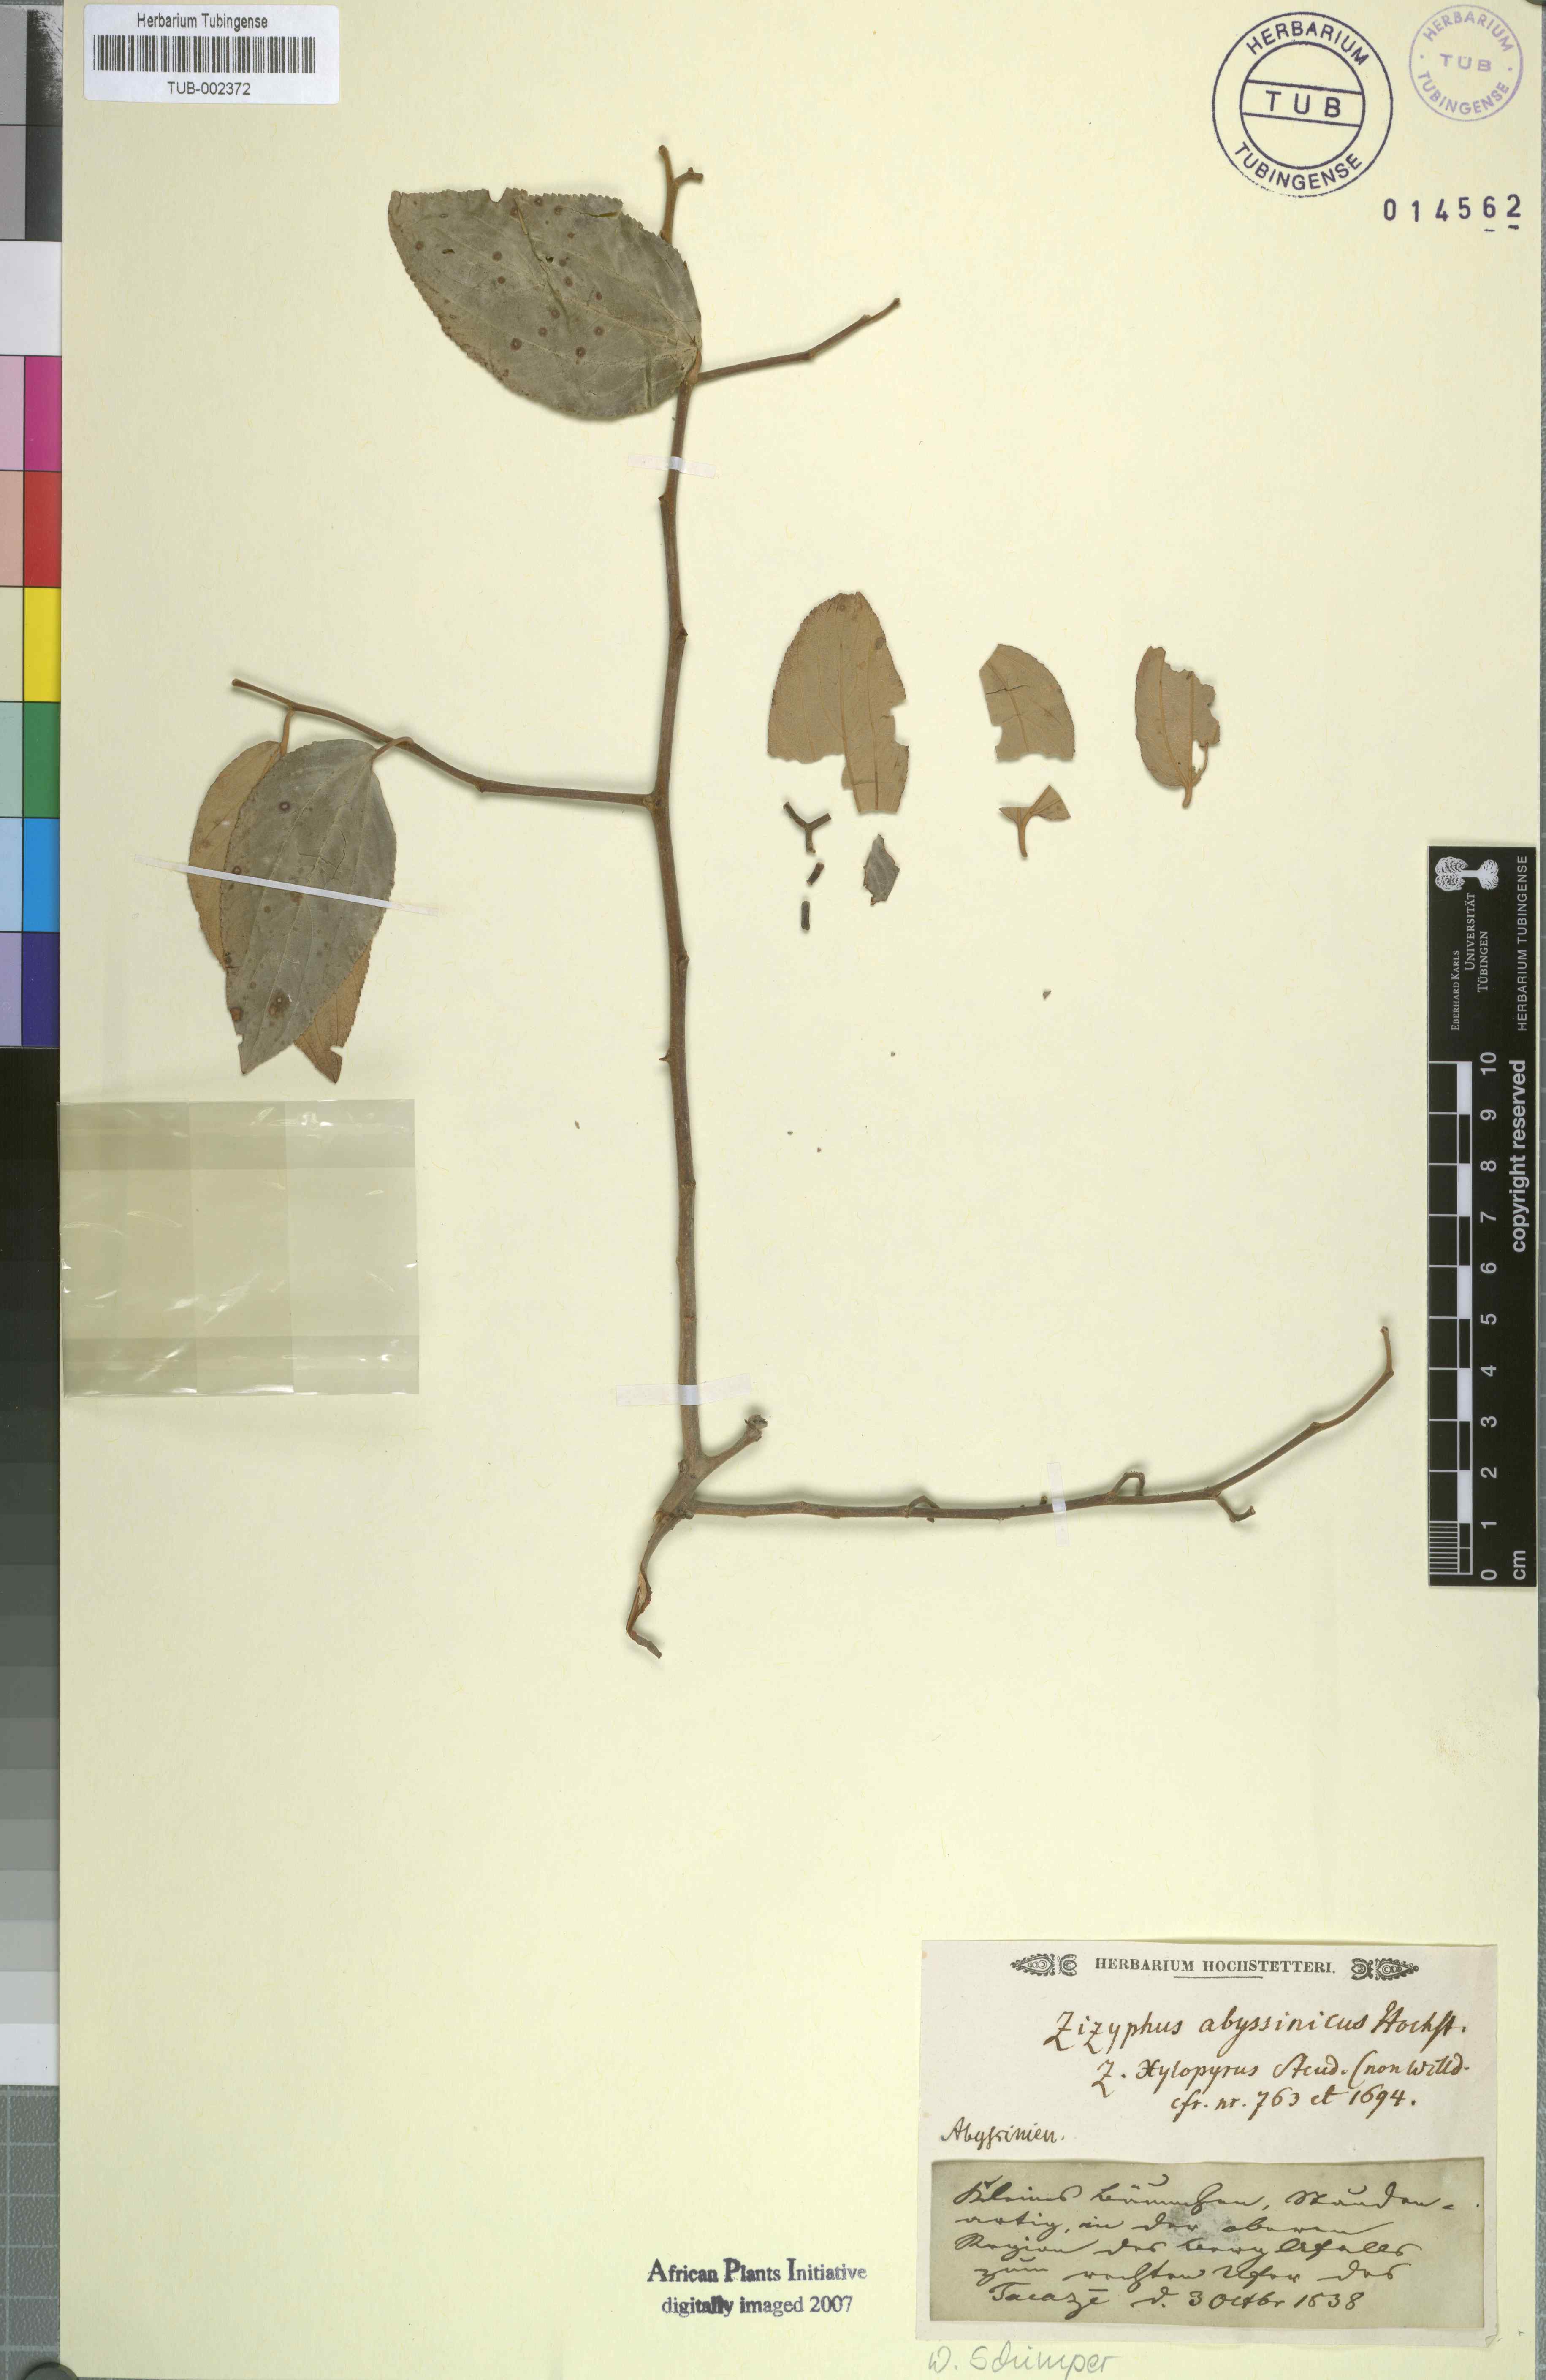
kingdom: Plantae
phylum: Tracheophyta
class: Magnoliopsida
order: Rosales
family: Rhamnaceae
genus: Ziziphus
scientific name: Ziziphus jujuba
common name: Jujube red date
